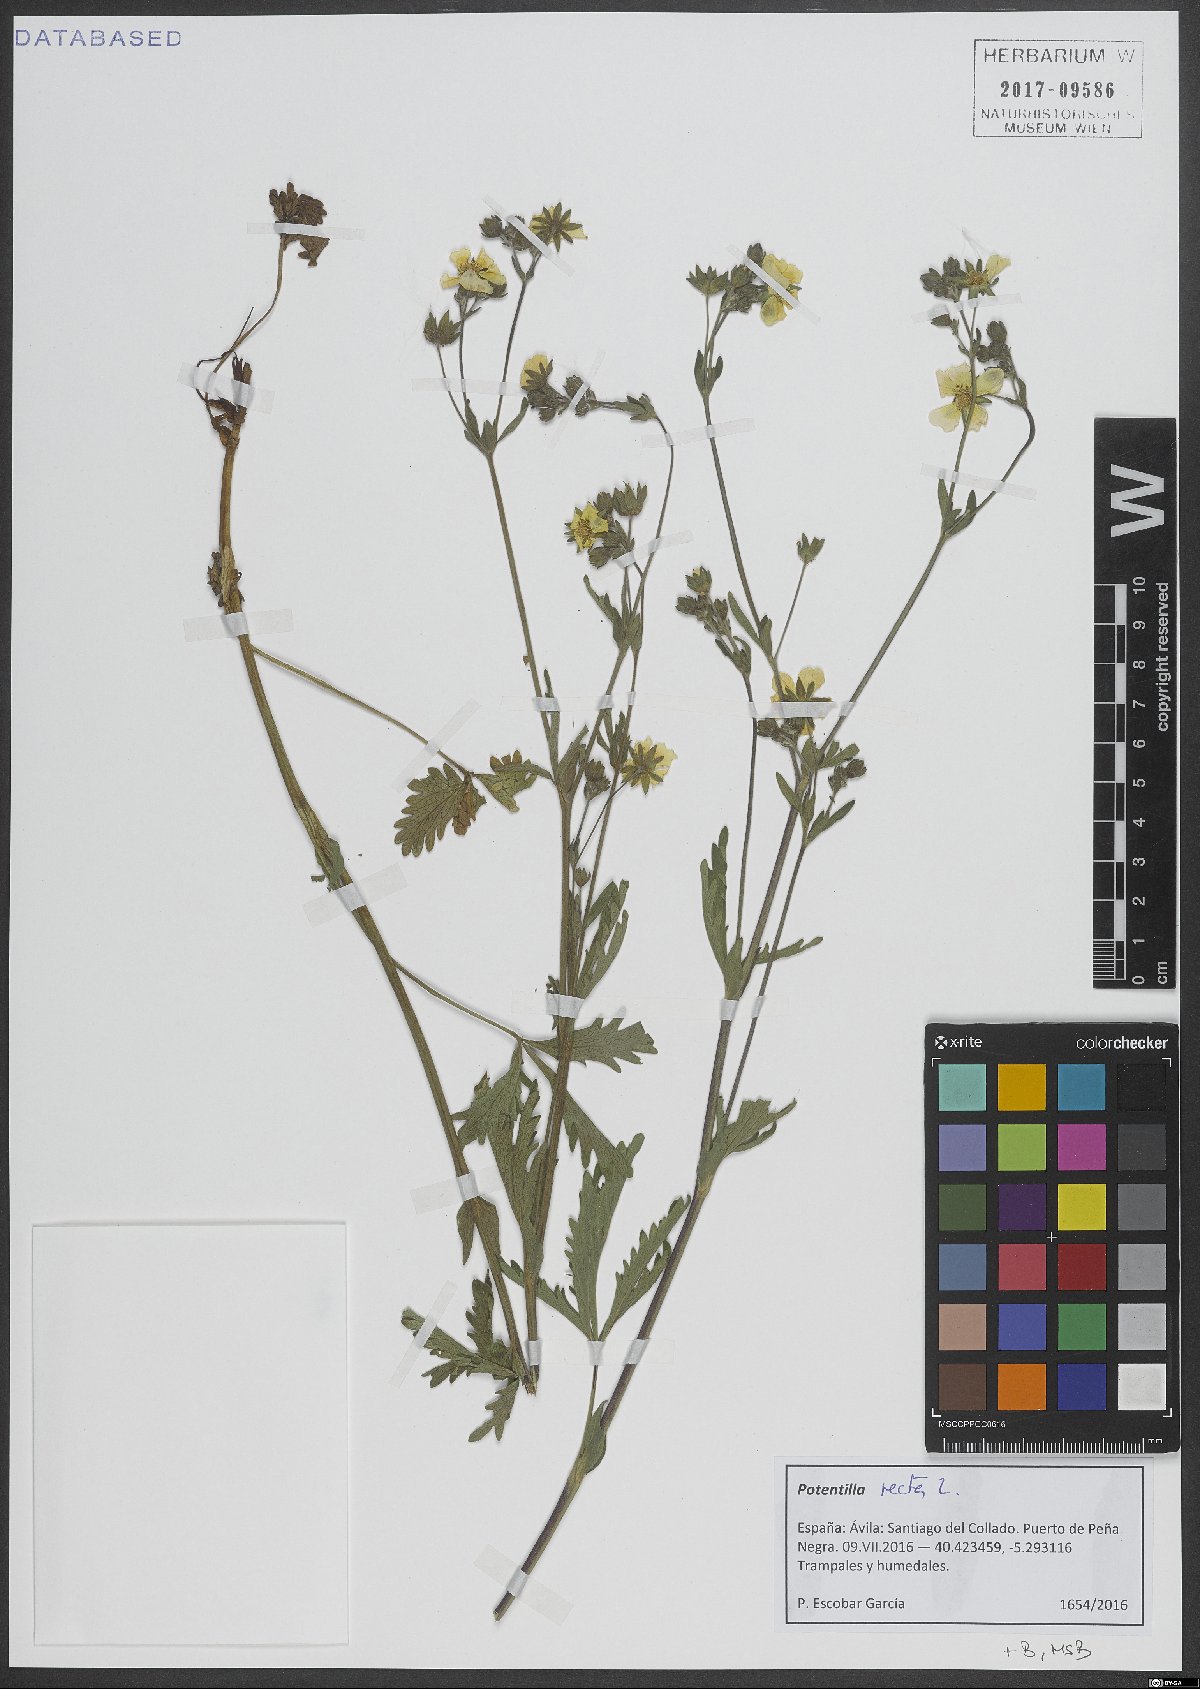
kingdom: Plantae
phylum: Tracheophyta
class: Magnoliopsida
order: Rosales
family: Rosaceae
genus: Potentilla
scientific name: Potentilla recta
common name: Sulphur cinquefoil
